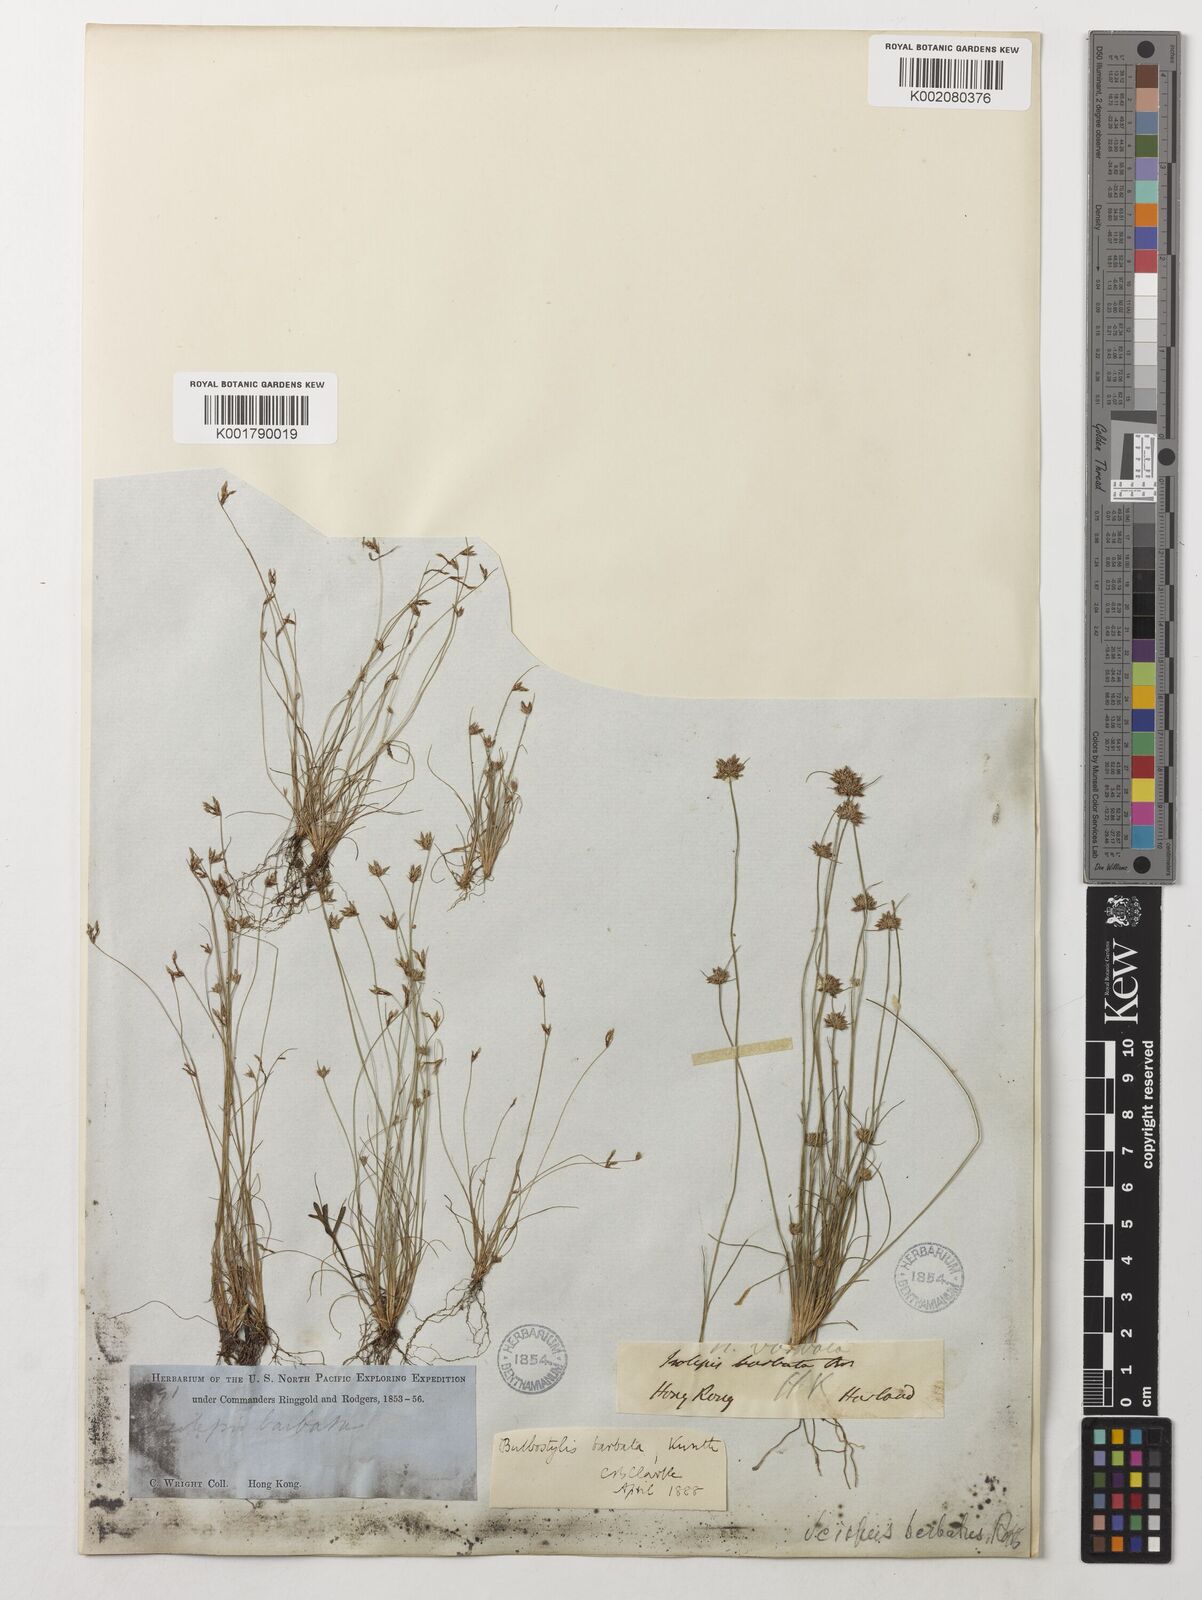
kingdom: Plantae
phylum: Tracheophyta
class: Liliopsida
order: Poales
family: Cyperaceae
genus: Bulbostylis
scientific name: Bulbostylis barbata
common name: Watergrass
